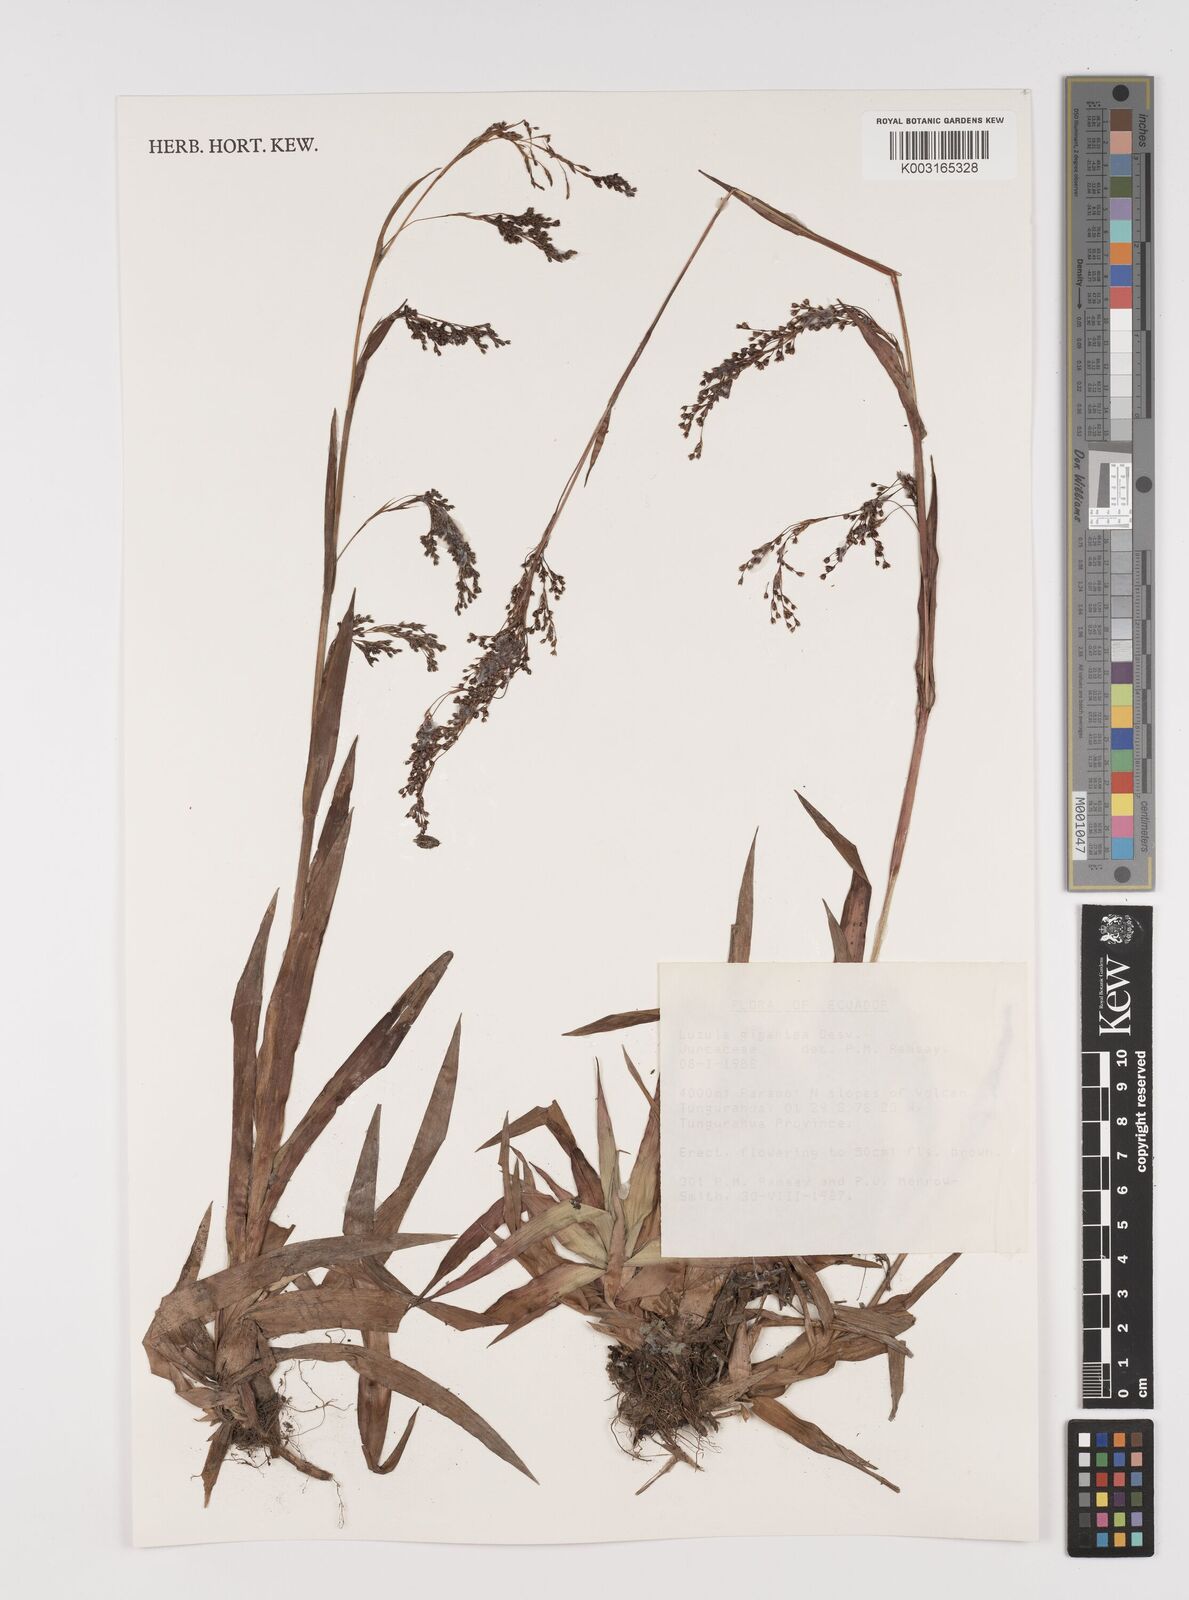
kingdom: Plantae
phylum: Tracheophyta
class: Liliopsida
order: Poales
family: Juncaceae
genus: Luzula
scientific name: Luzula gigantea
